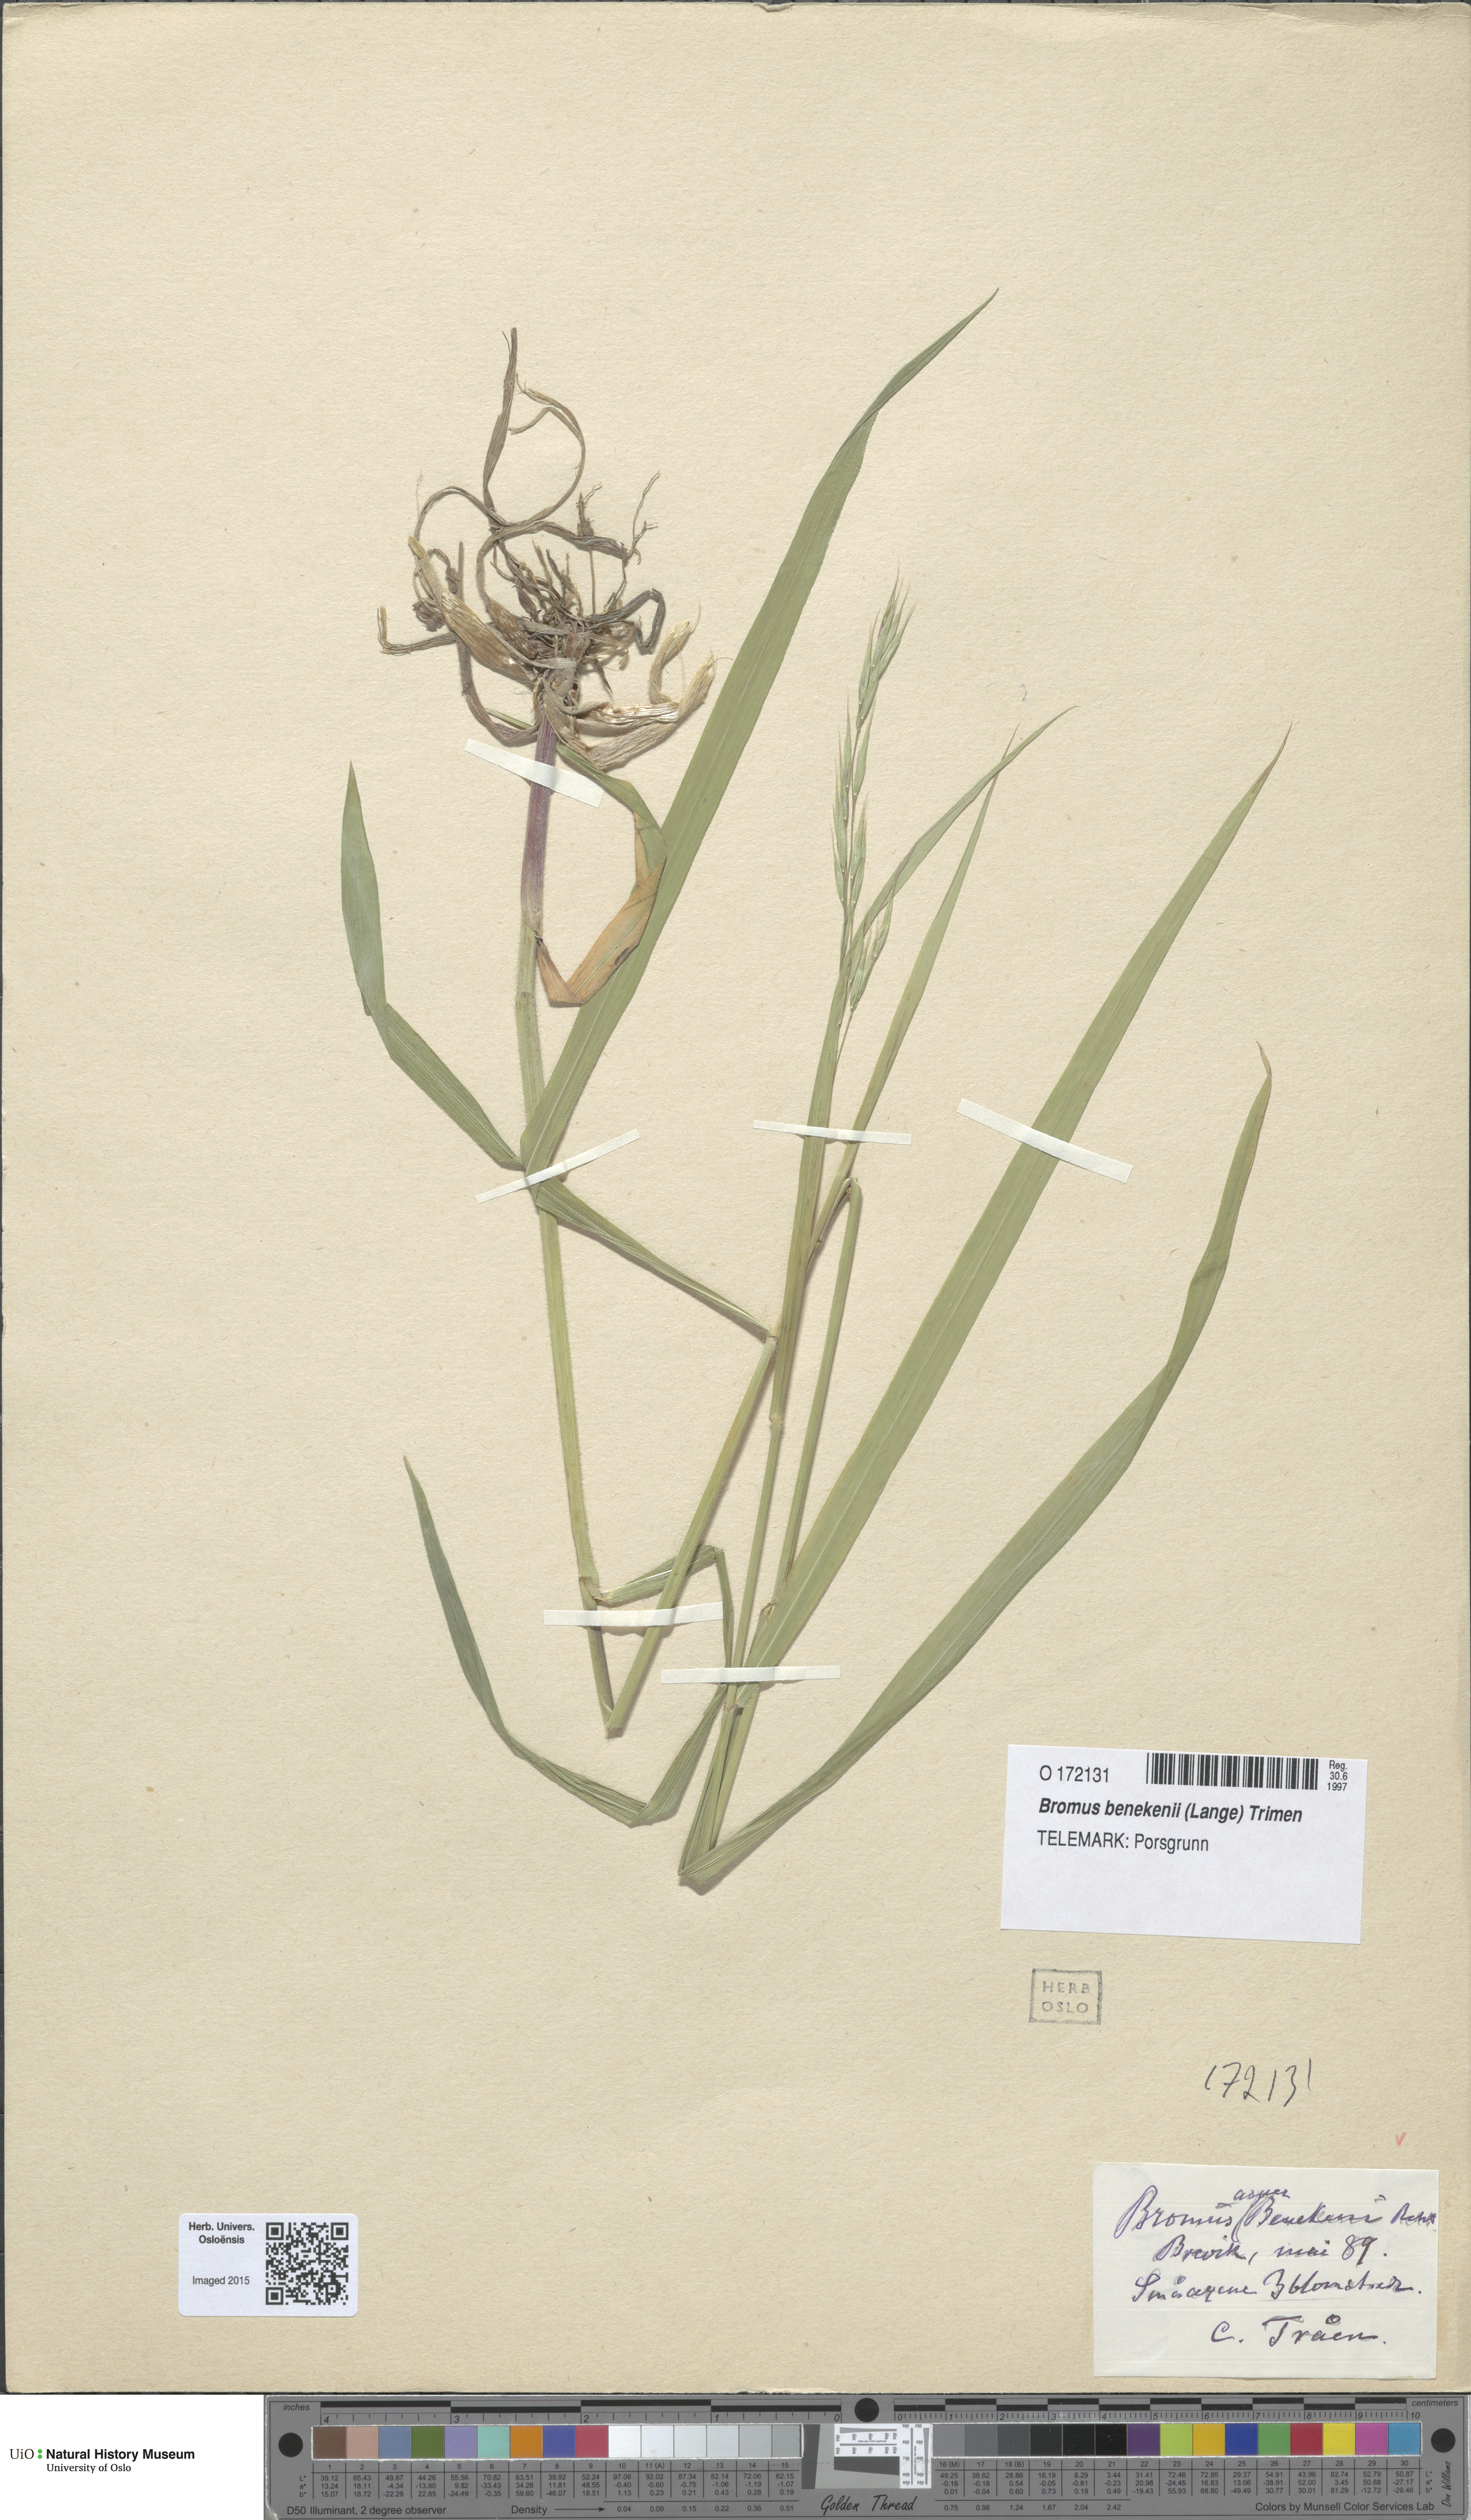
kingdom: Plantae
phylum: Tracheophyta
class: Liliopsida
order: Poales
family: Poaceae
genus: Bromus
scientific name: Bromus benekenii
